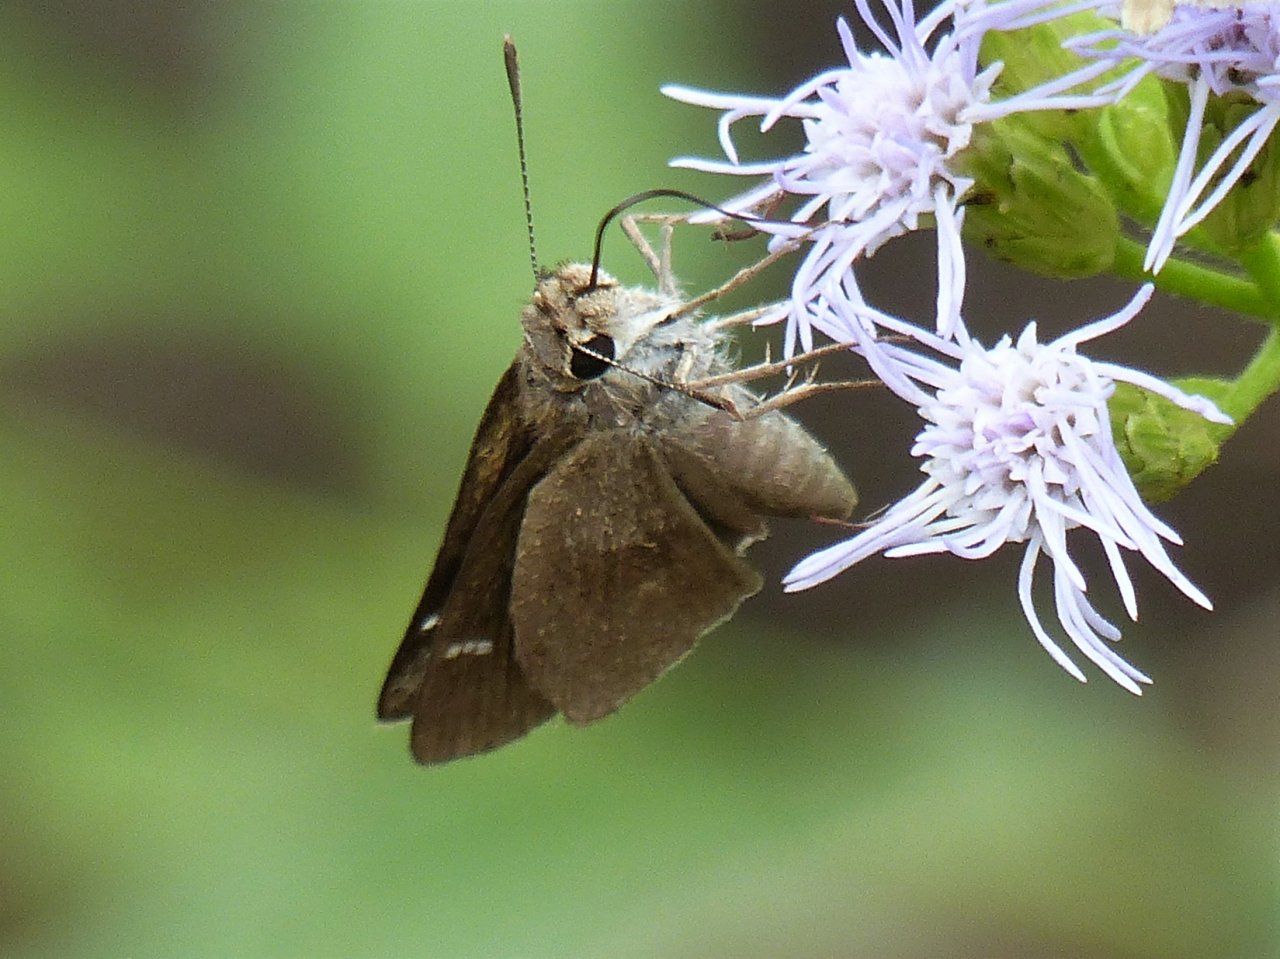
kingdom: Animalia
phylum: Arthropoda
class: Insecta
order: Lepidoptera
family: Hesperiidae
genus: Lerodea
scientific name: Lerodea arabus
